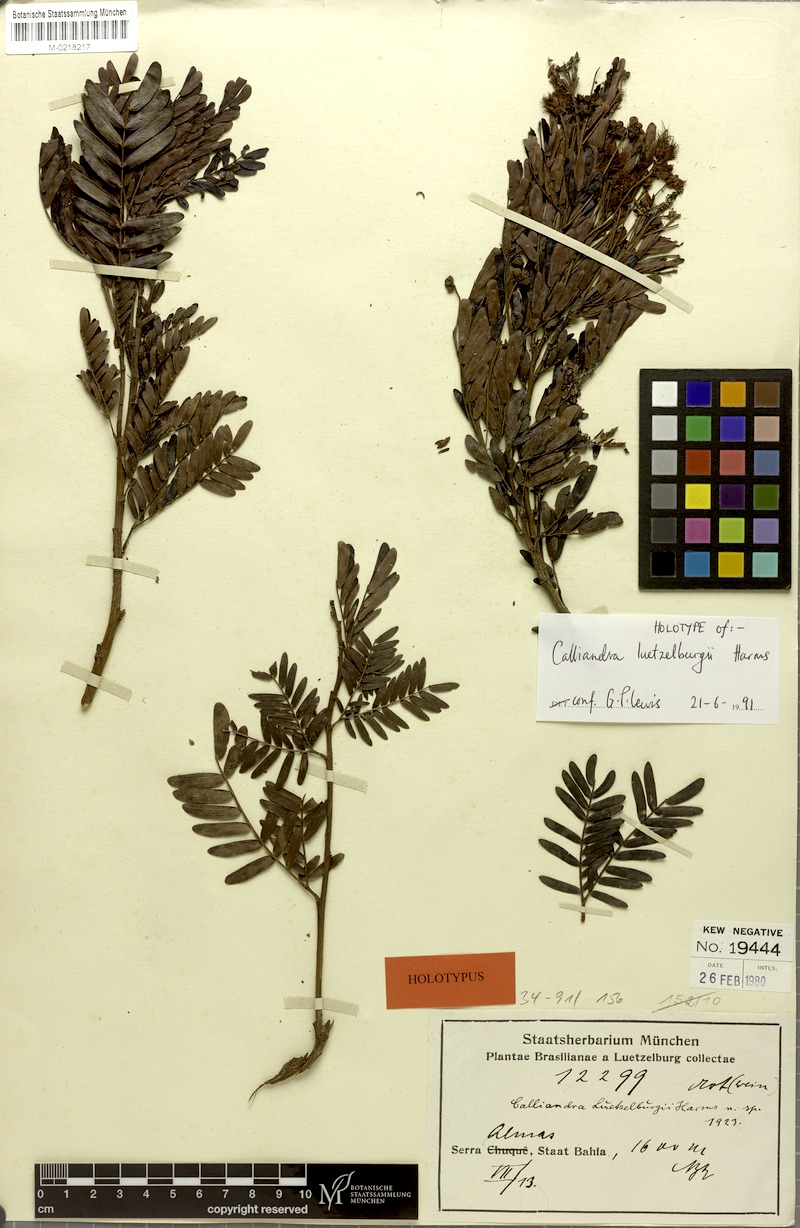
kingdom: Plantae
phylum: Tracheophyta
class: Magnoliopsida
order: Fabales
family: Fabaceae
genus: Calliandra
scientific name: Calliandra luetzelburgii
